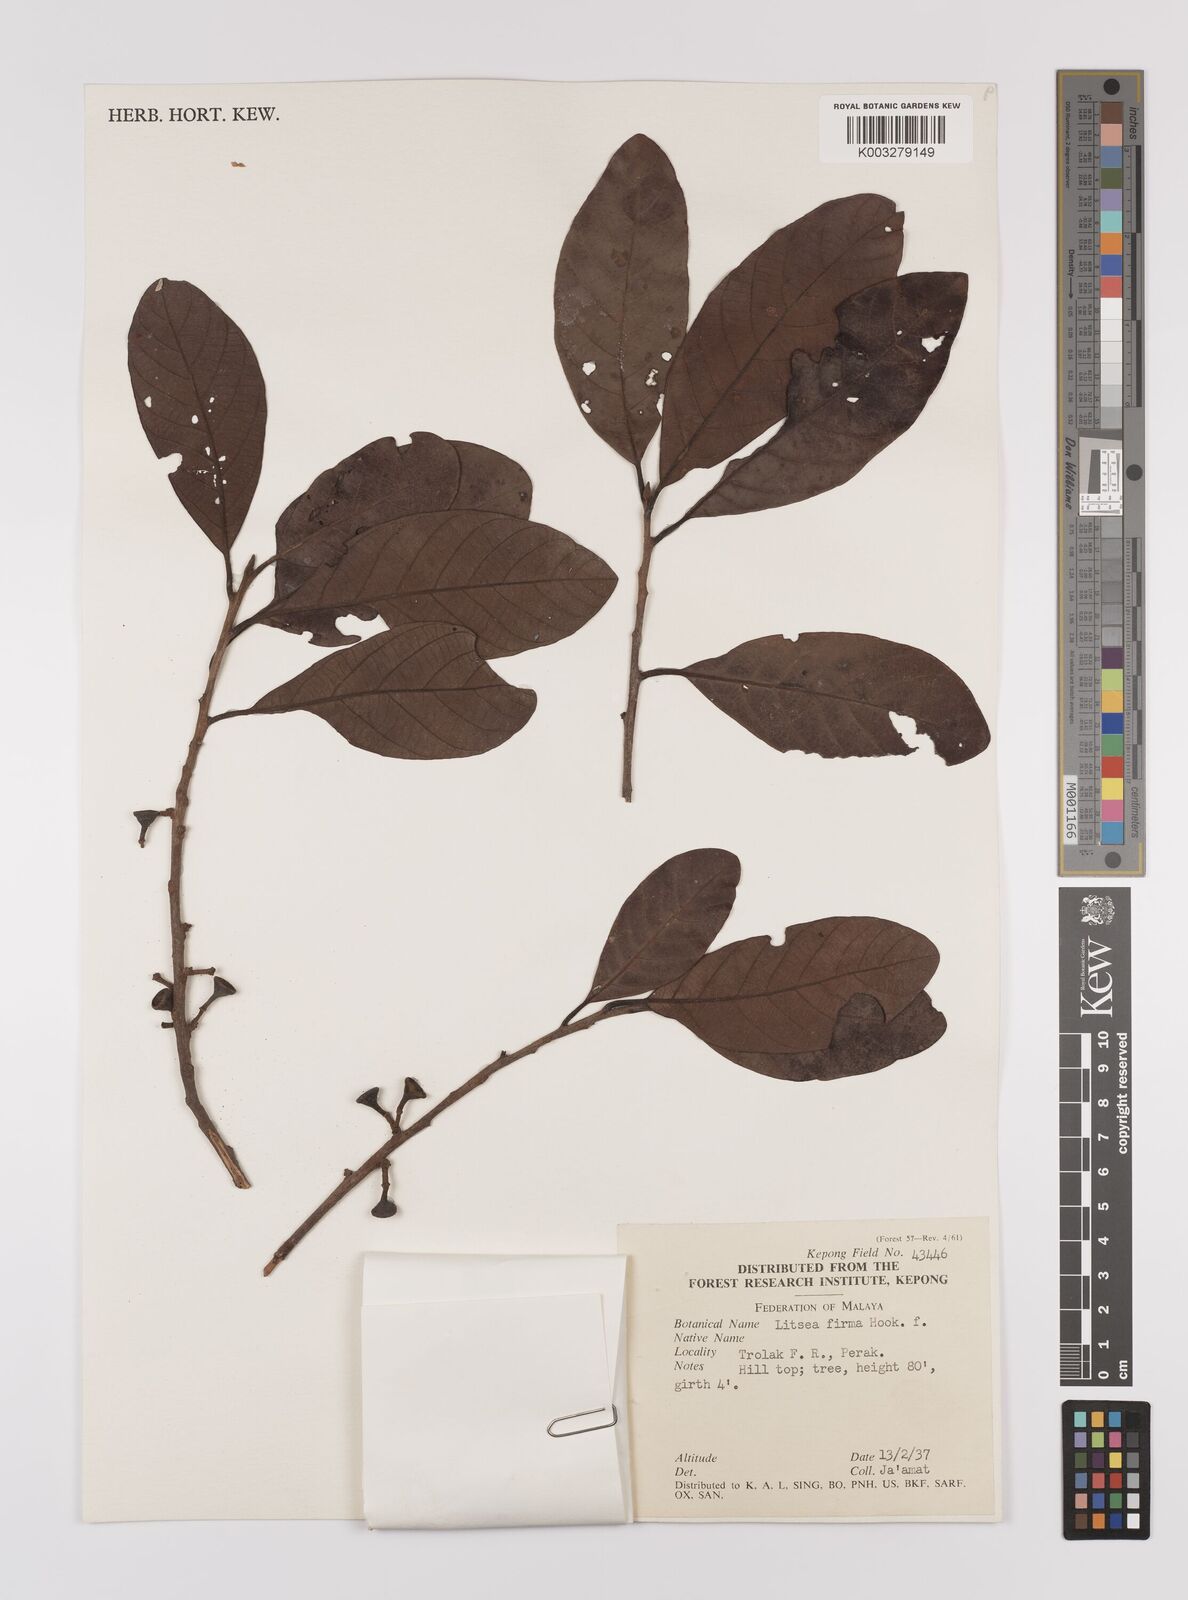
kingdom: Plantae
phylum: Tracheophyta
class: Magnoliopsida
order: Laurales
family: Lauraceae
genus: Litsea
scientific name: Litsea firma
